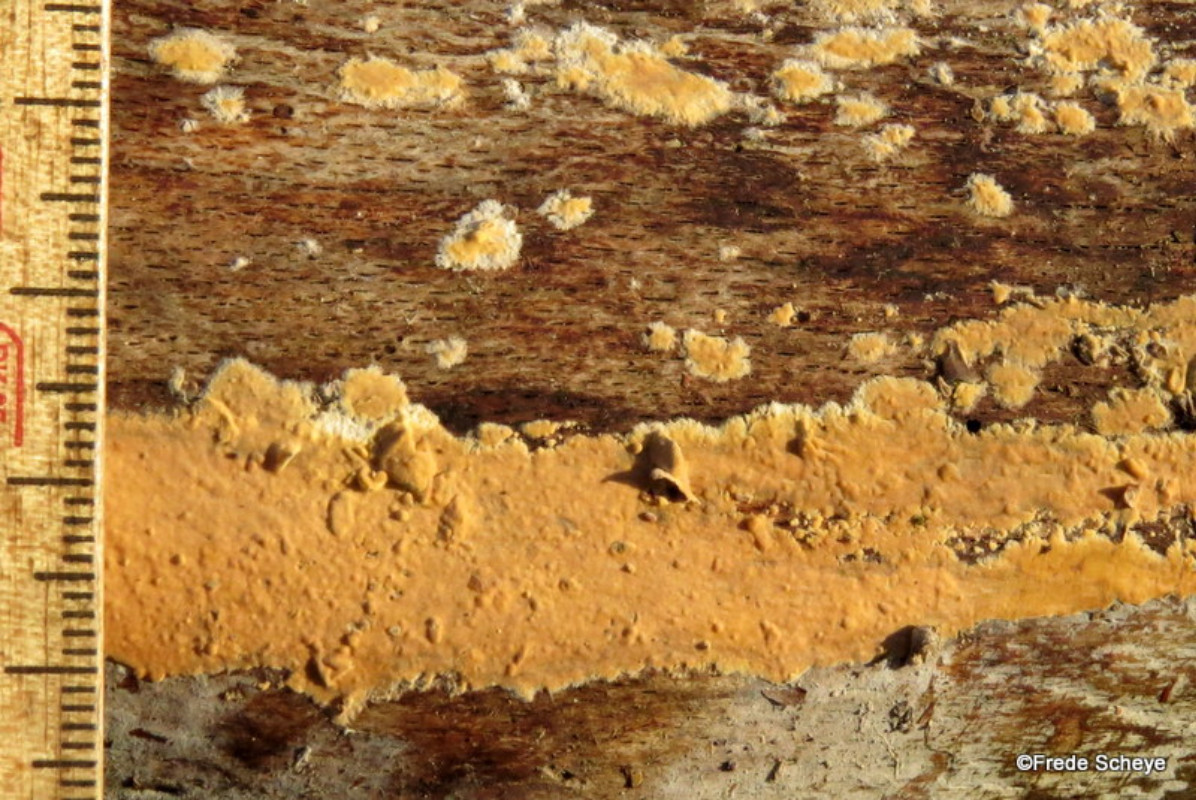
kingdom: Fungi
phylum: Basidiomycota
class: Agaricomycetes
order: Russulales
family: Peniophoraceae
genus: Peniophora
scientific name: Peniophora incarnata
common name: laksefarvet voksskind
